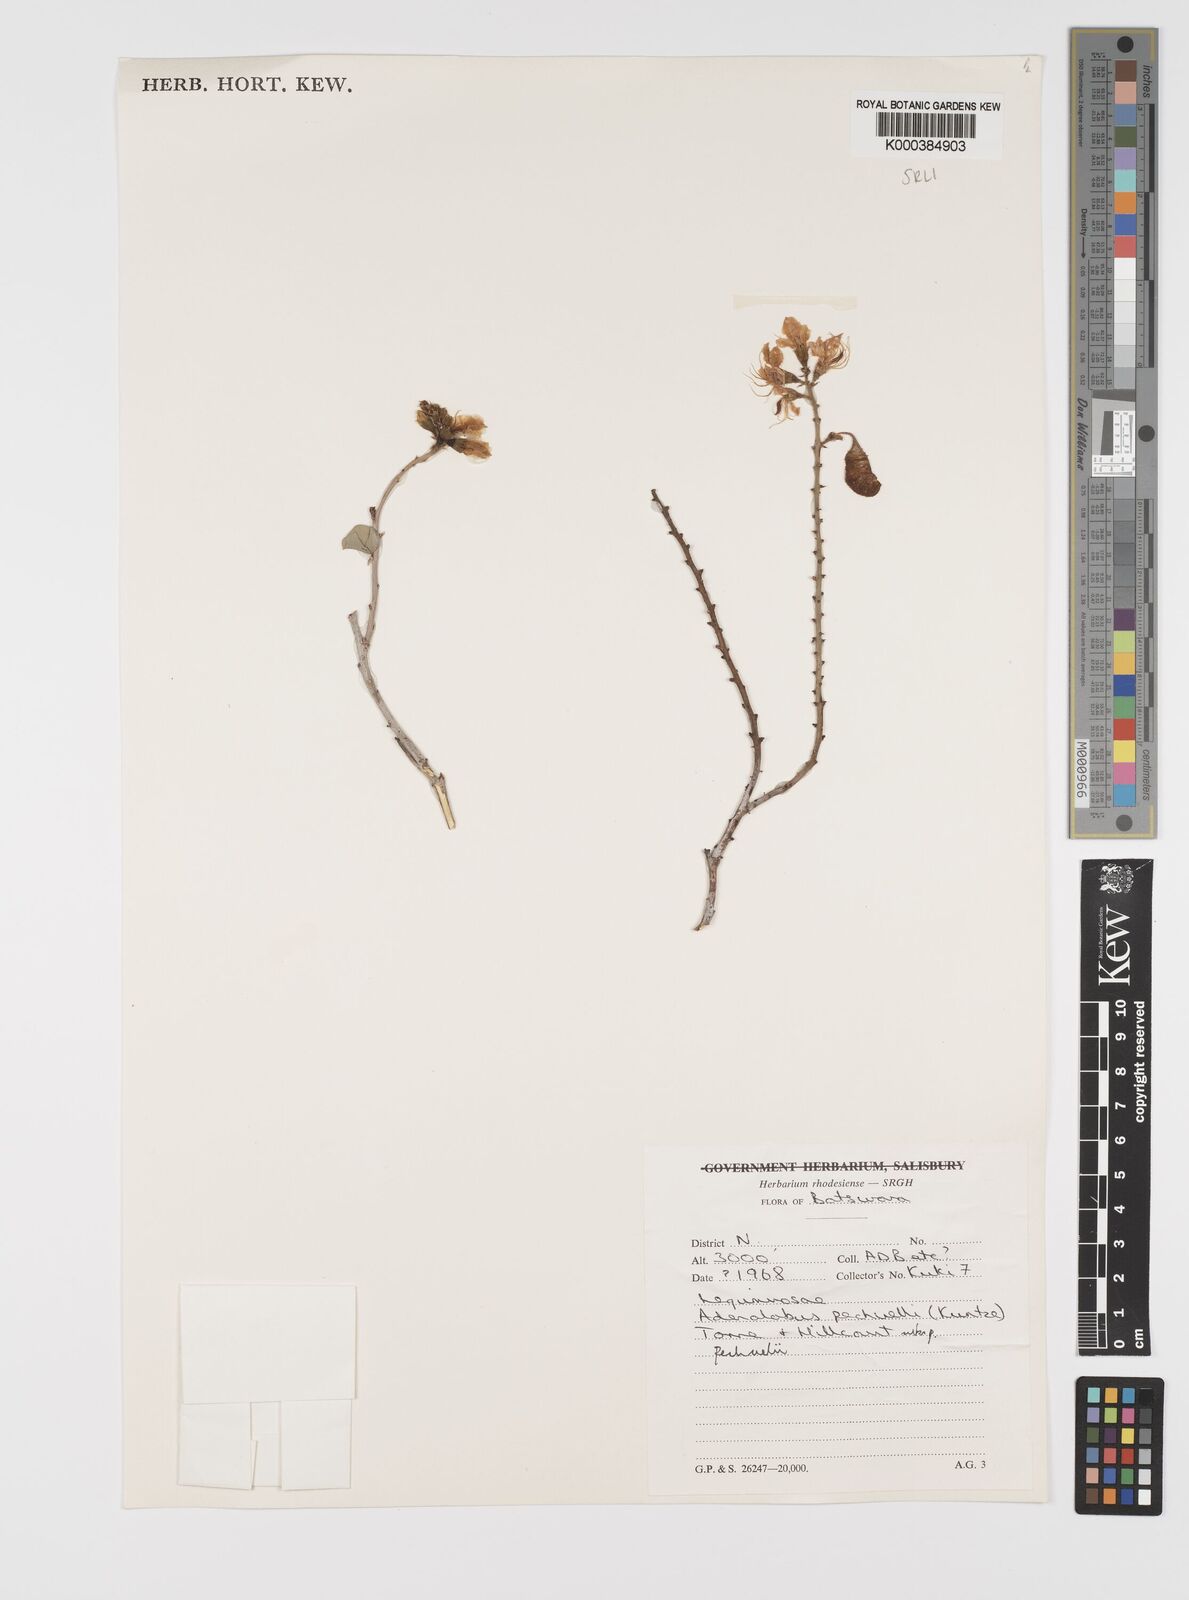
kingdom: Plantae
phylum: Tracheophyta
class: Magnoliopsida
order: Fabales
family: Fabaceae
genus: Adenolobus
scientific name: Adenolobus pechuelii
